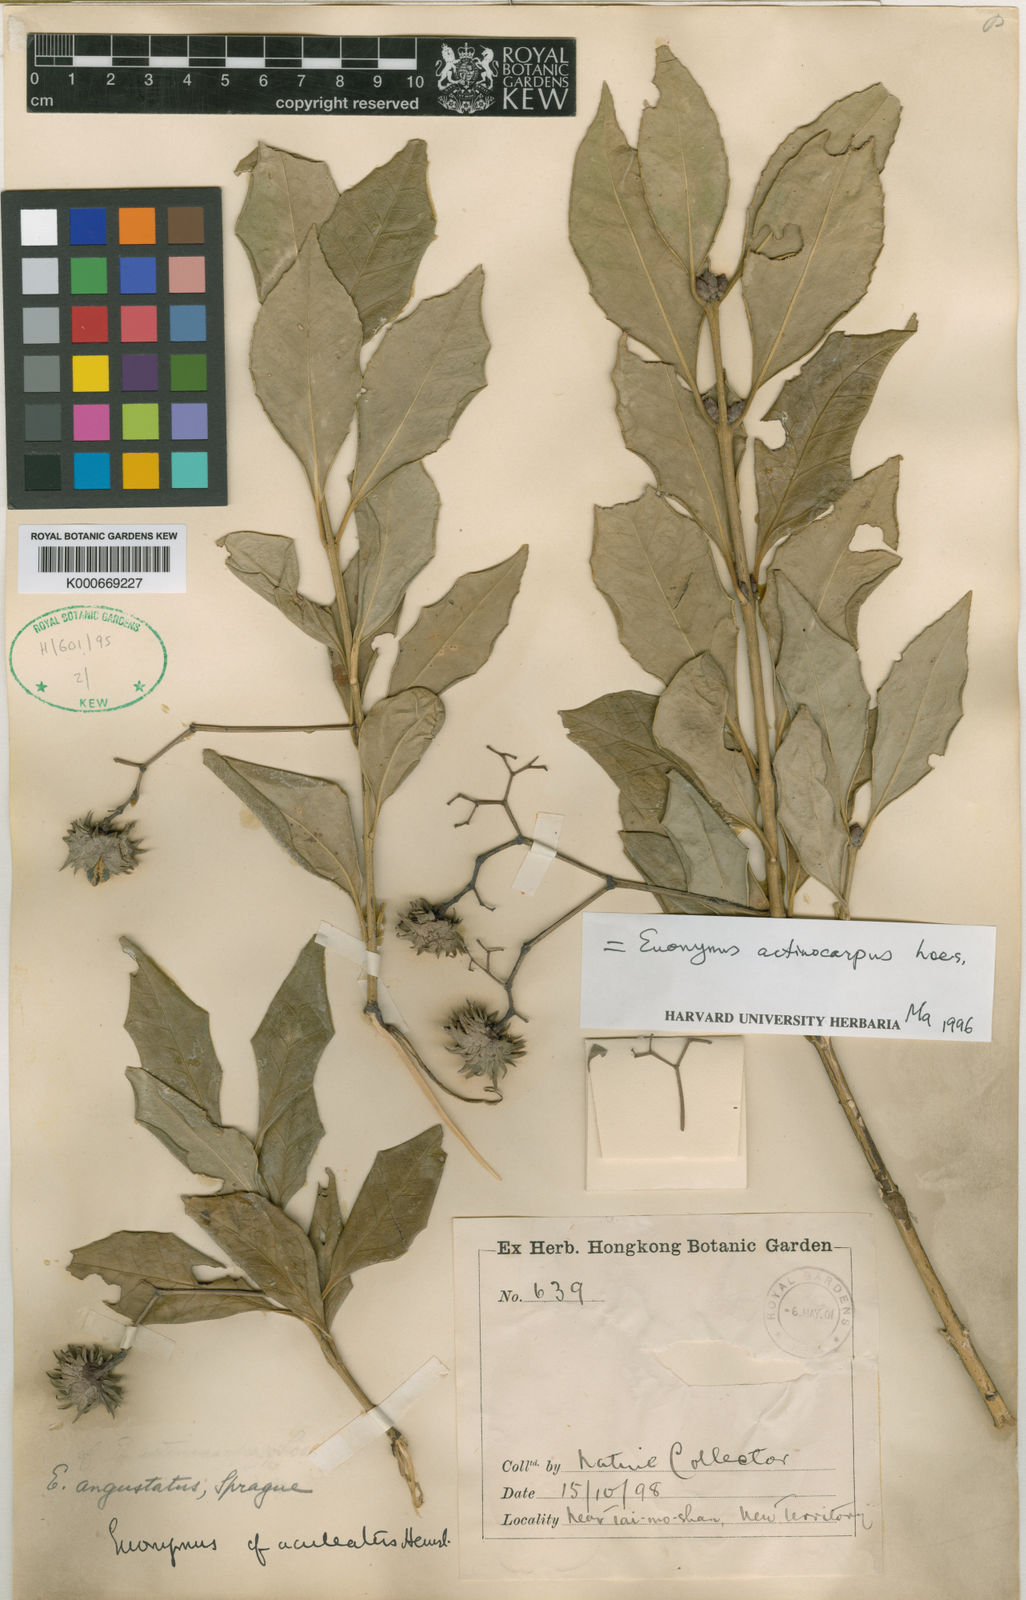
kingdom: Plantae
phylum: Tracheophyta
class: Magnoliopsida
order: Celastrales
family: Celastraceae
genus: Euonymus
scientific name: Euonymus actinocarpus
